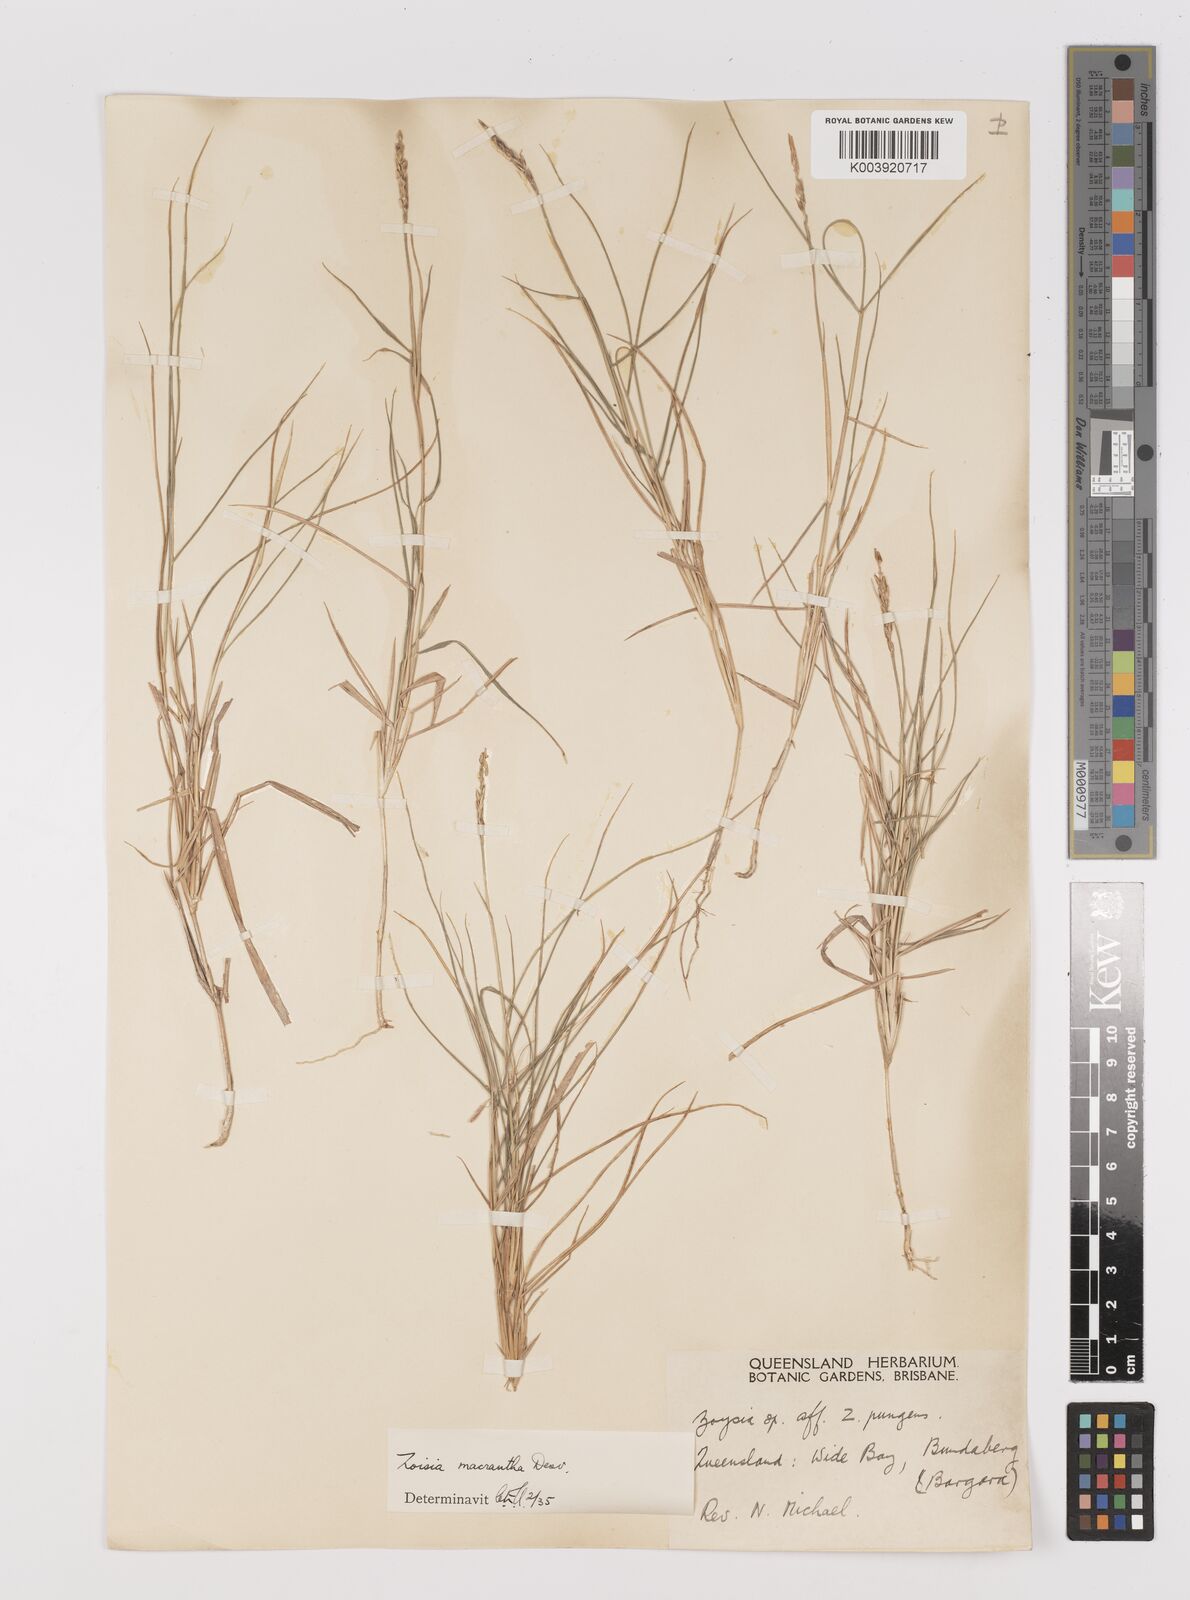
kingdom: Plantae
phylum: Tracheophyta
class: Liliopsida
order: Poales
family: Poaceae
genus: Zoysia
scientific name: Zoysia macrantha
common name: Korean lawn grass
